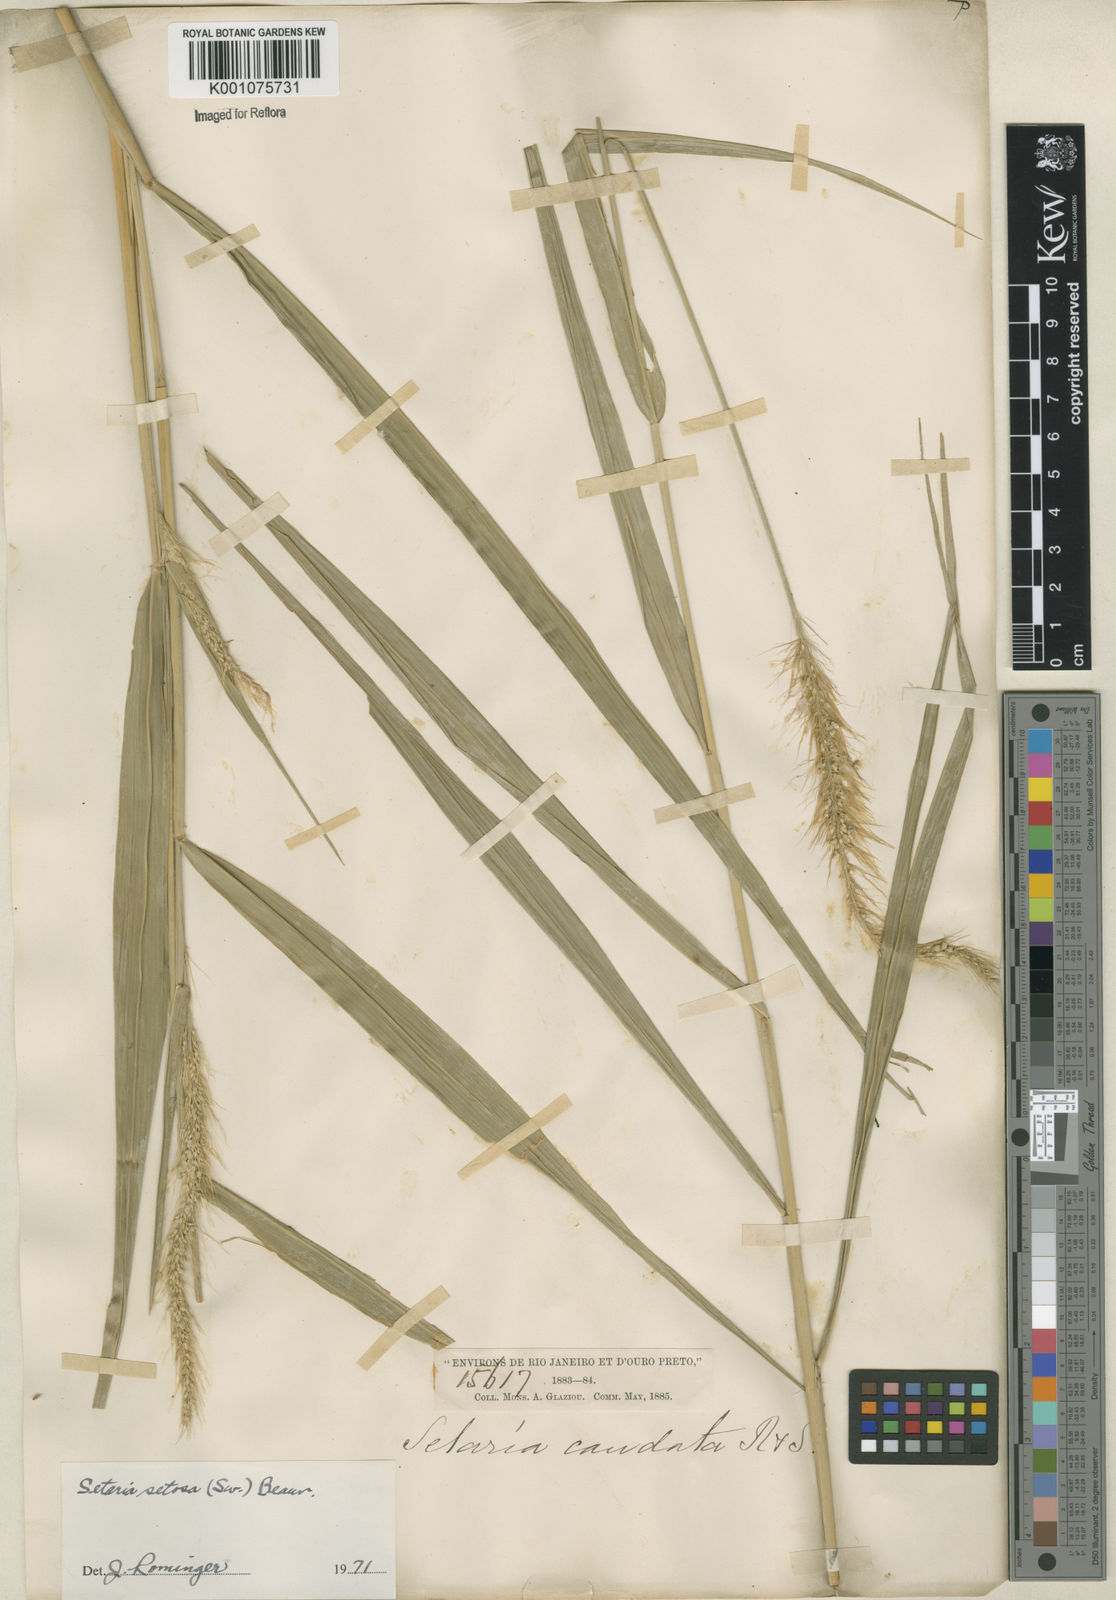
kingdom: Plantae
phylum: Tracheophyta
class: Liliopsida
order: Poales
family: Poaceae
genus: Setaria
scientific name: Setaria tenax
